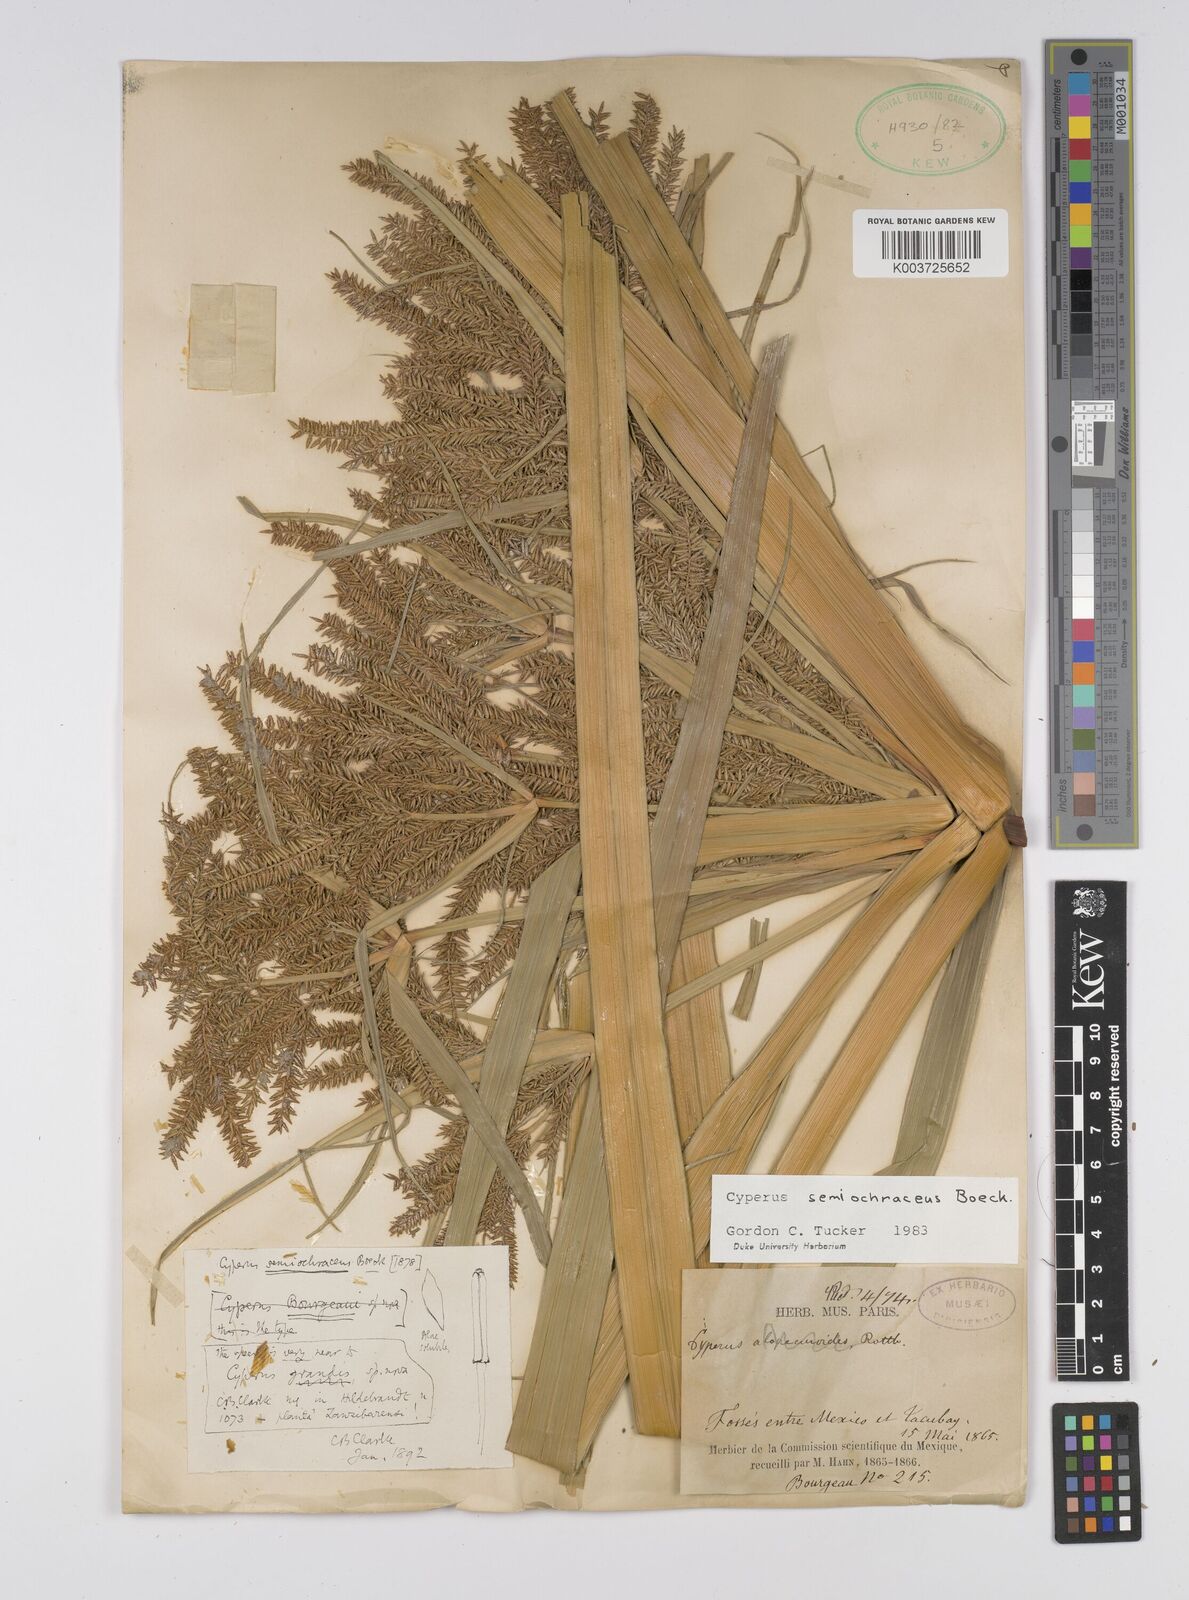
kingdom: Plantae
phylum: Tracheophyta
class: Liliopsida
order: Poales
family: Cyperaceae
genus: Cyperus
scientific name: Cyperus semiochraceus
